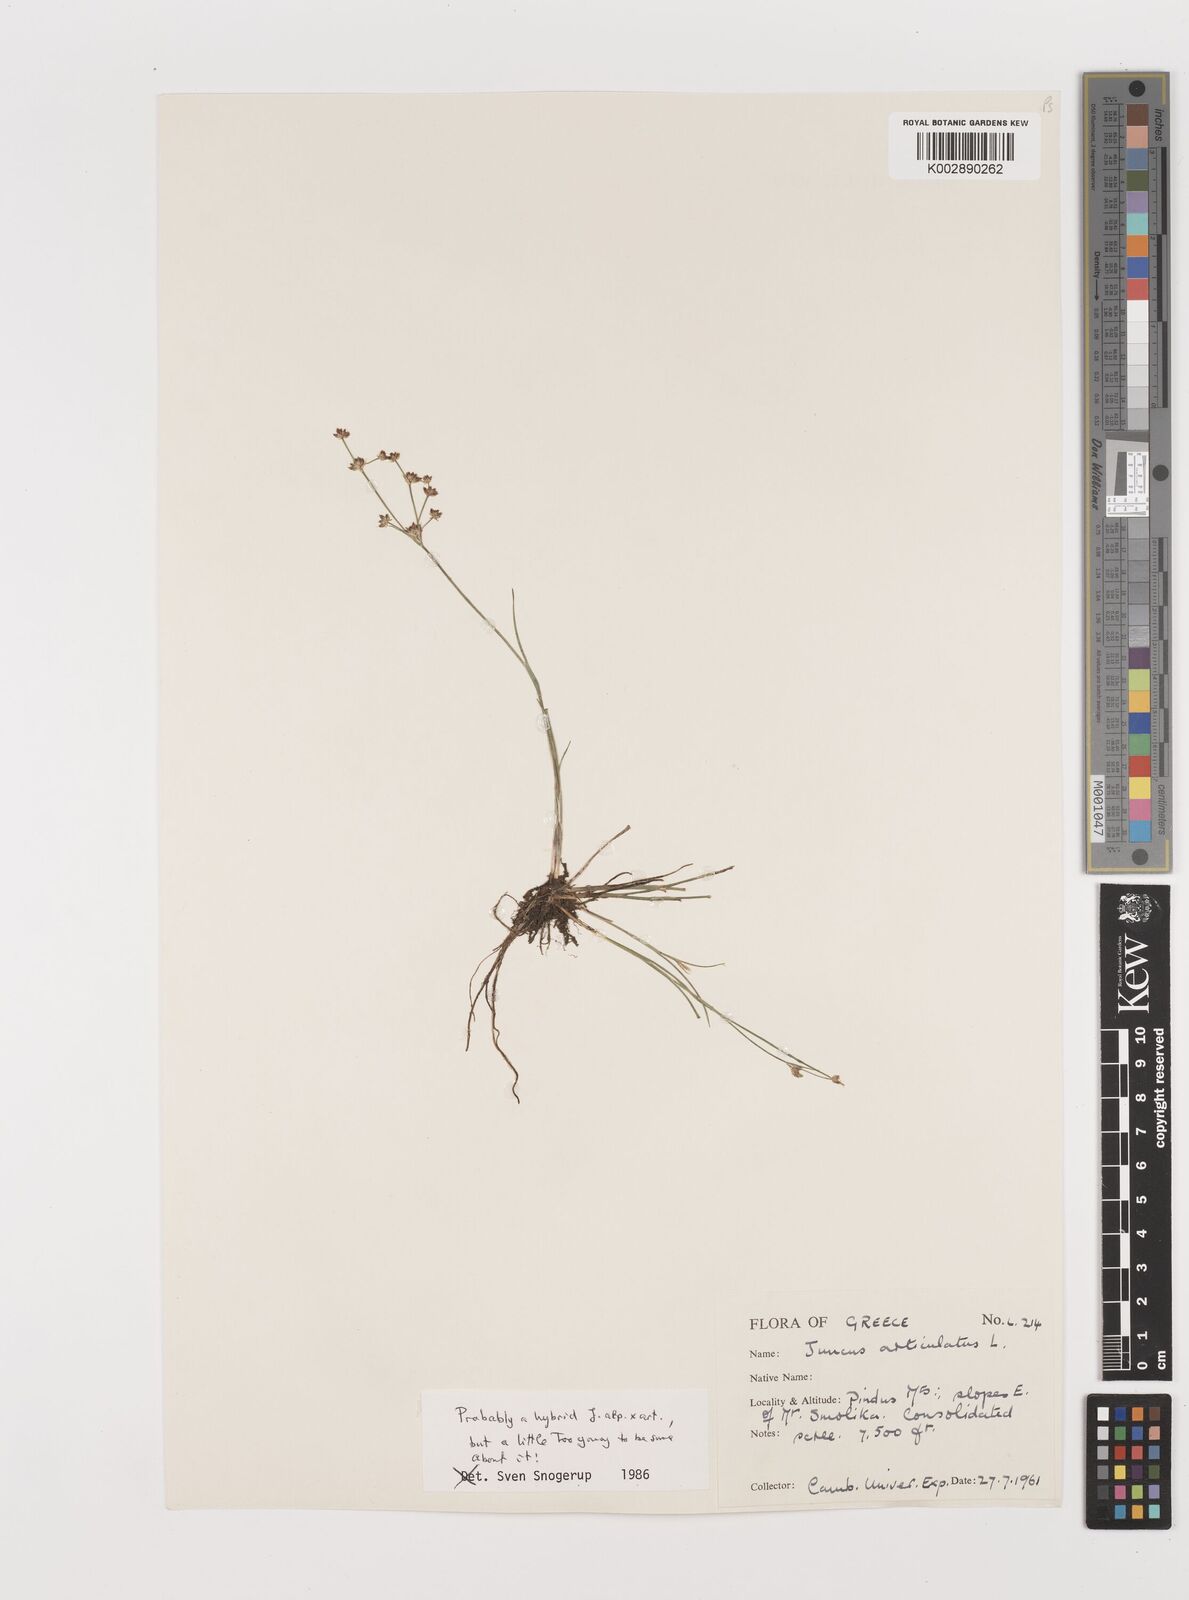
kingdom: Plantae
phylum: Tracheophyta
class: Liliopsida
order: Poales
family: Juncaceae
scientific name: Juncaceae
